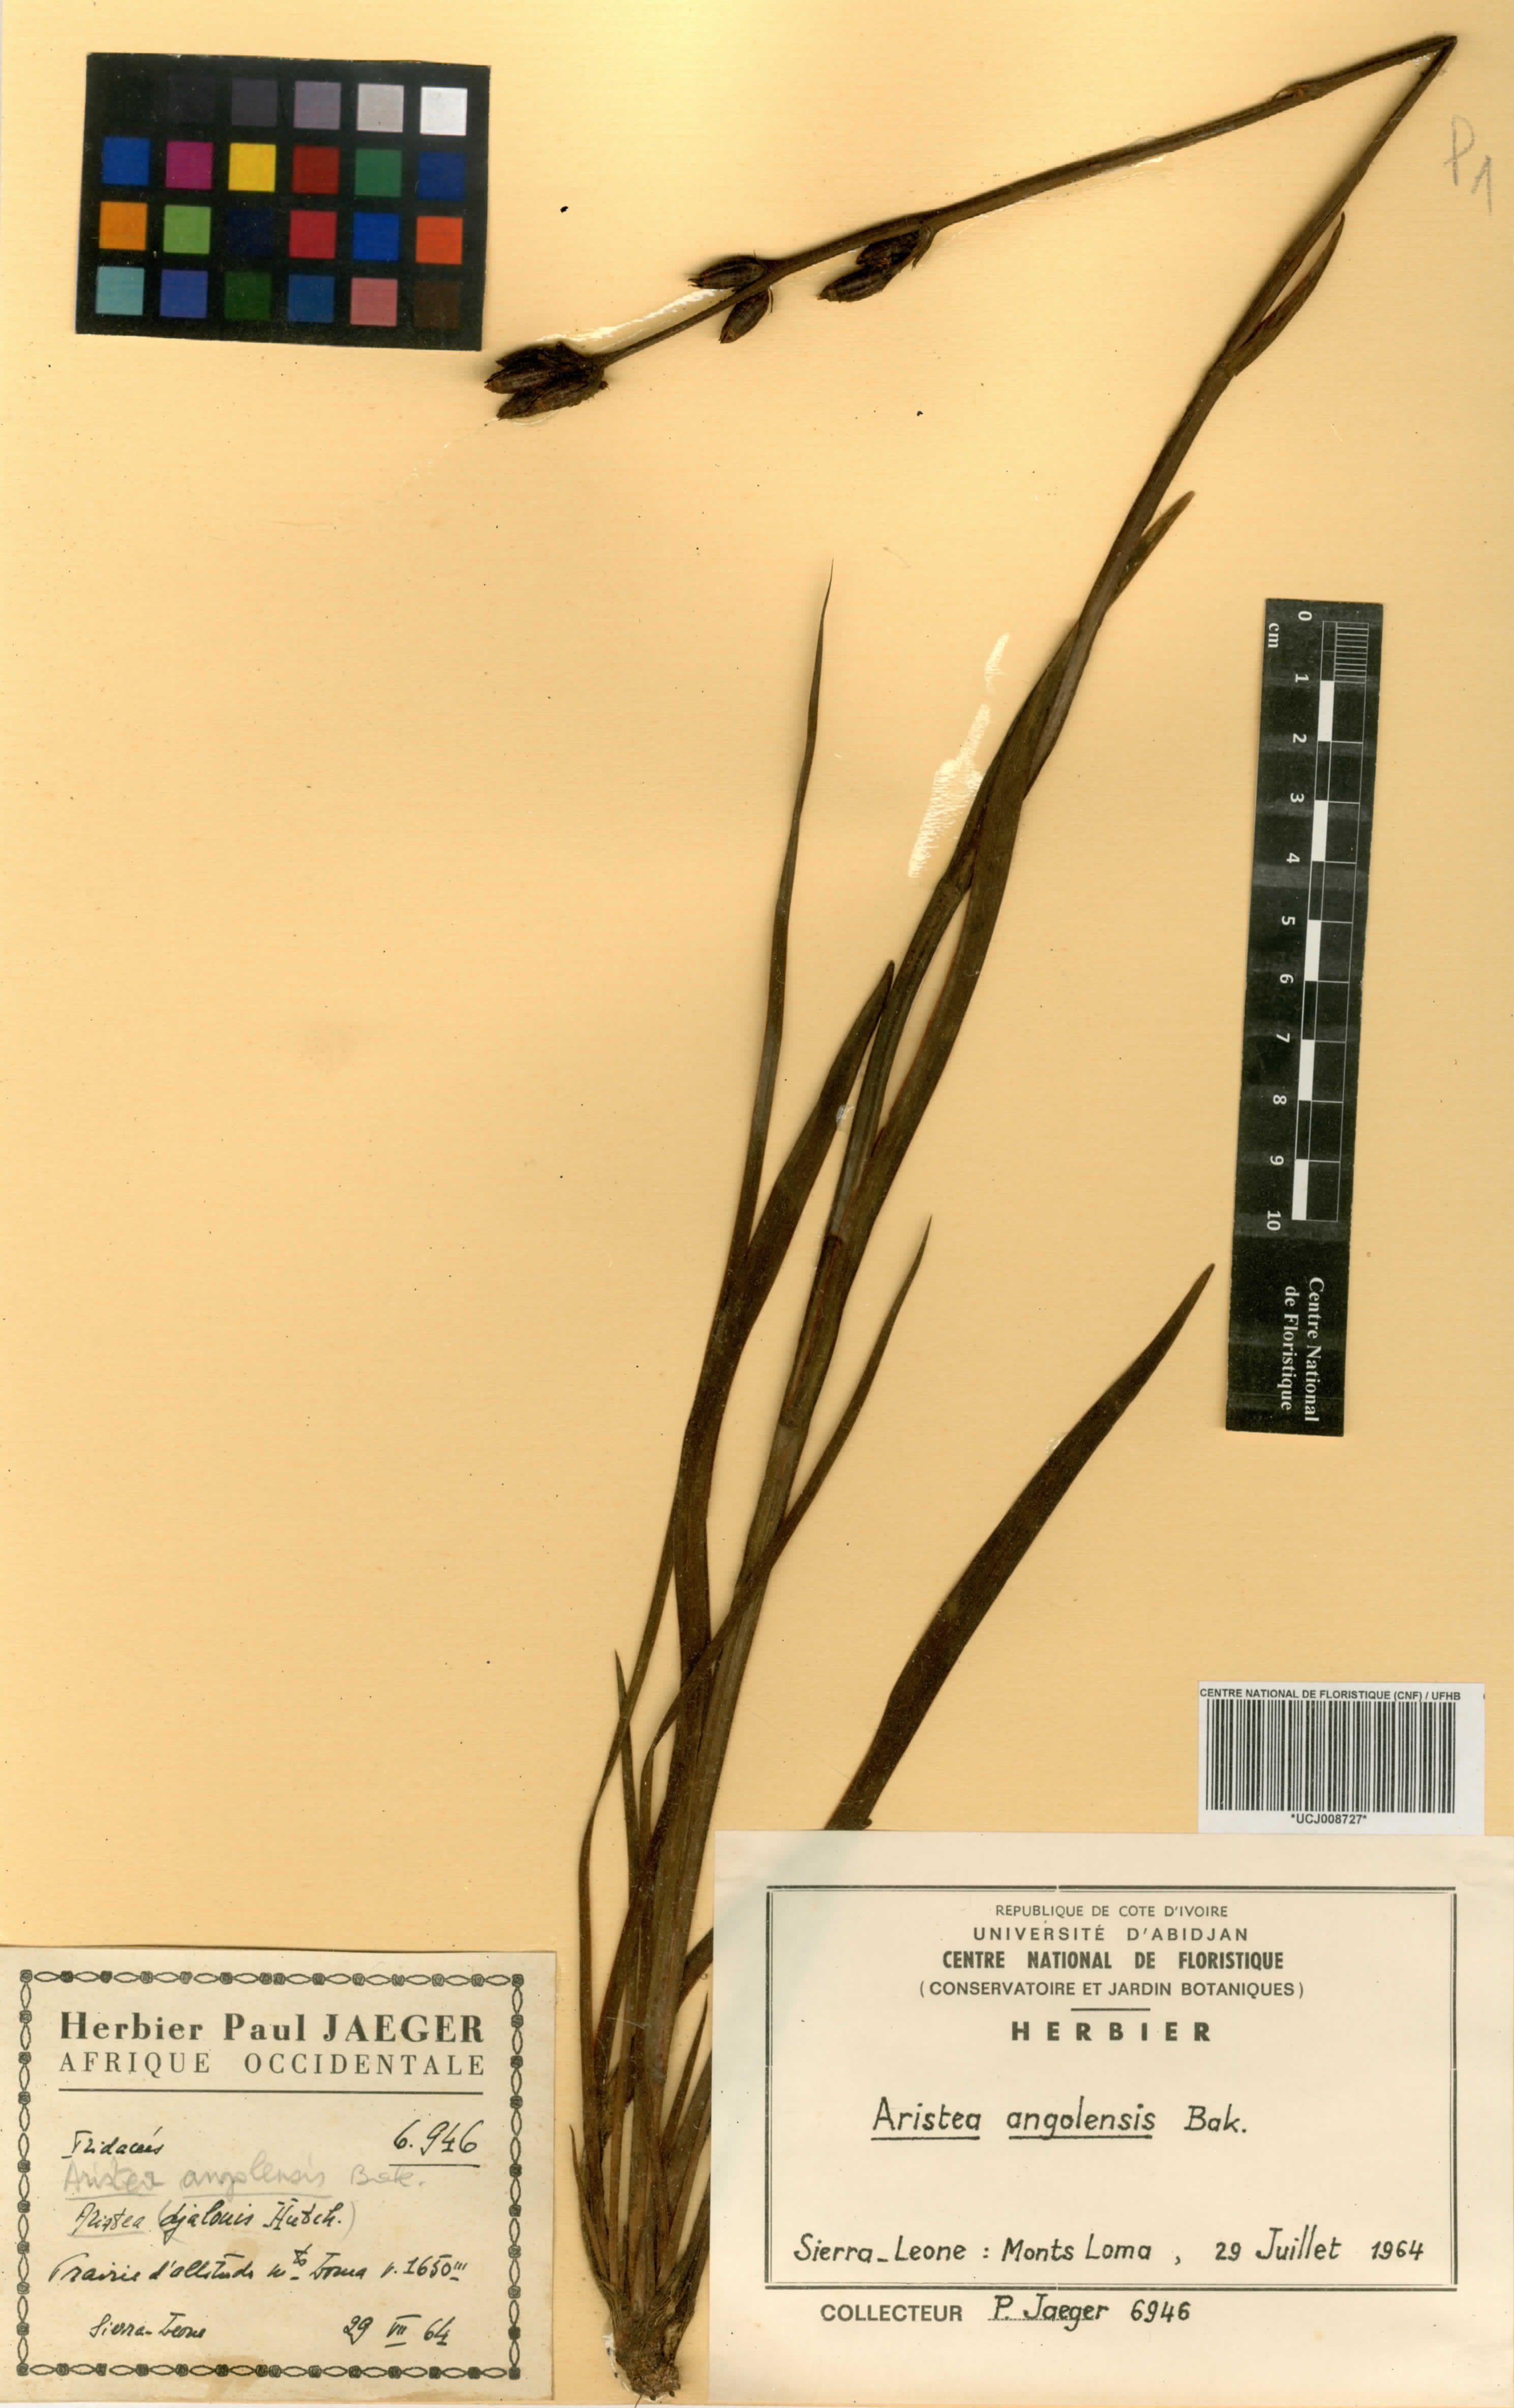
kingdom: Plantae
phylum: Tracheophyta
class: Liliopsida
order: Asparagales
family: Iridaceae
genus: Aristea
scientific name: Aristea angolensis
